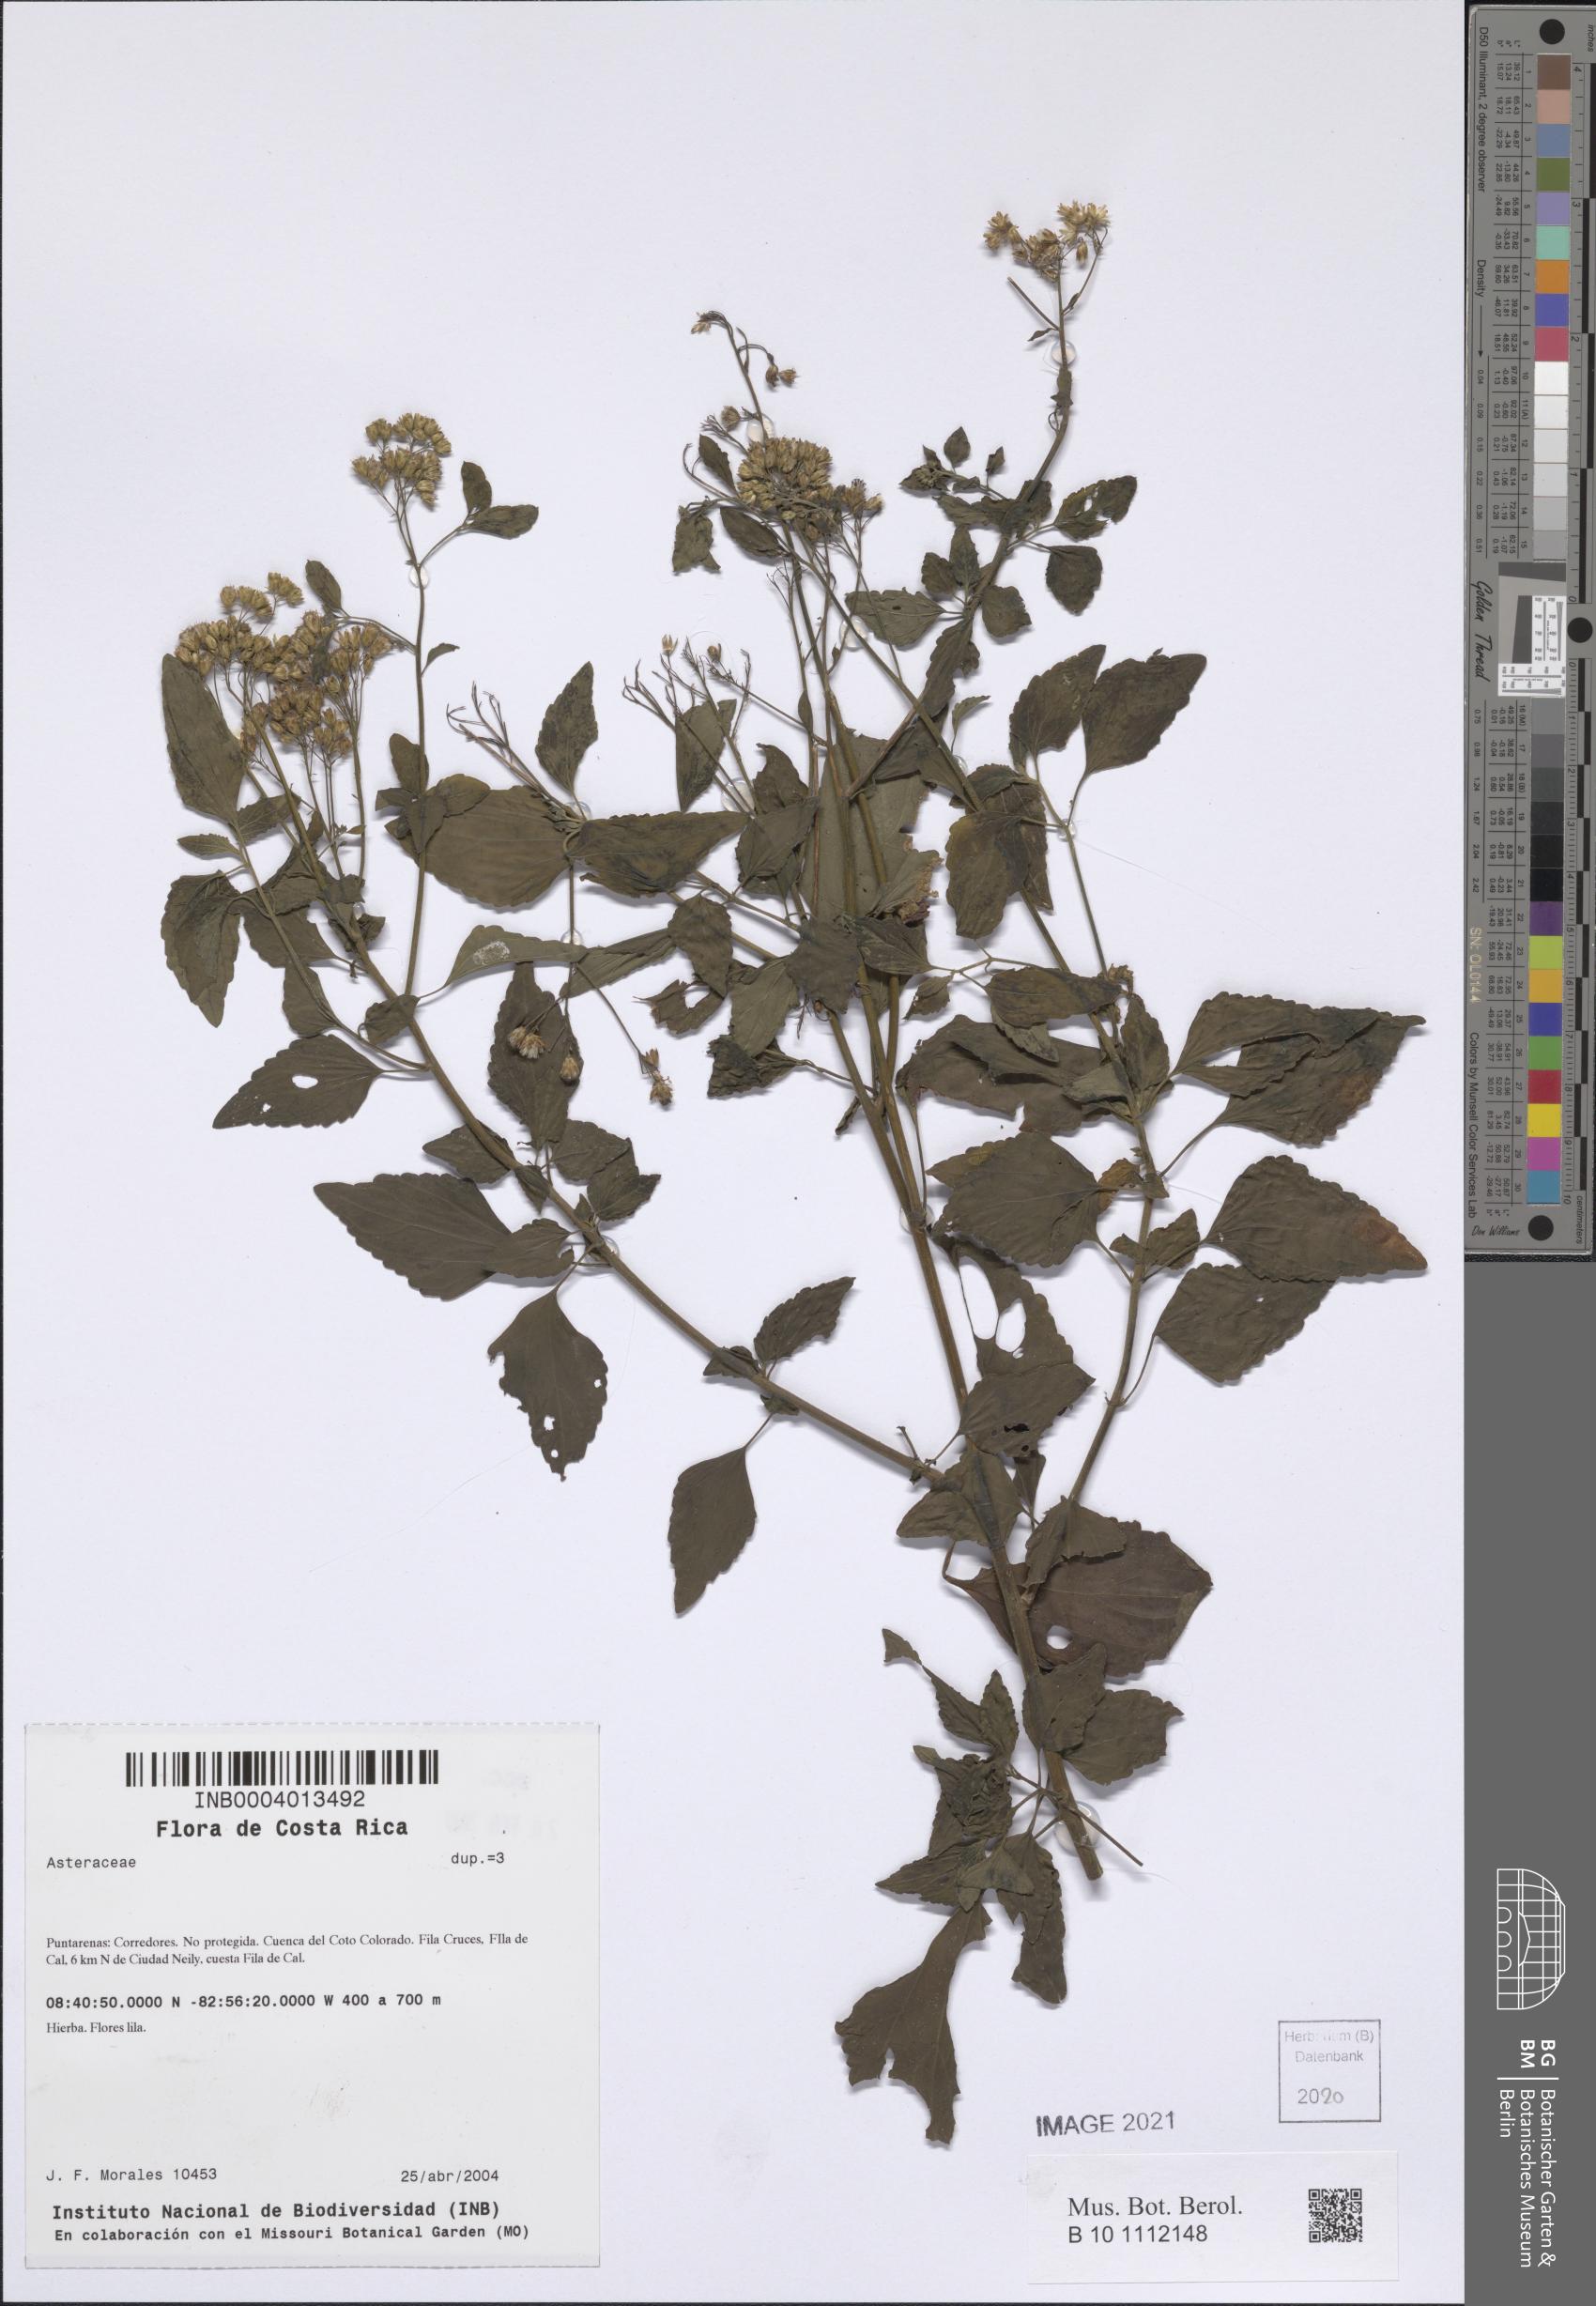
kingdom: Plantae
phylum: Tracheophyta
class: Magnoliopsida
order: Asterales
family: Asteraceae
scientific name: Asteraceae
